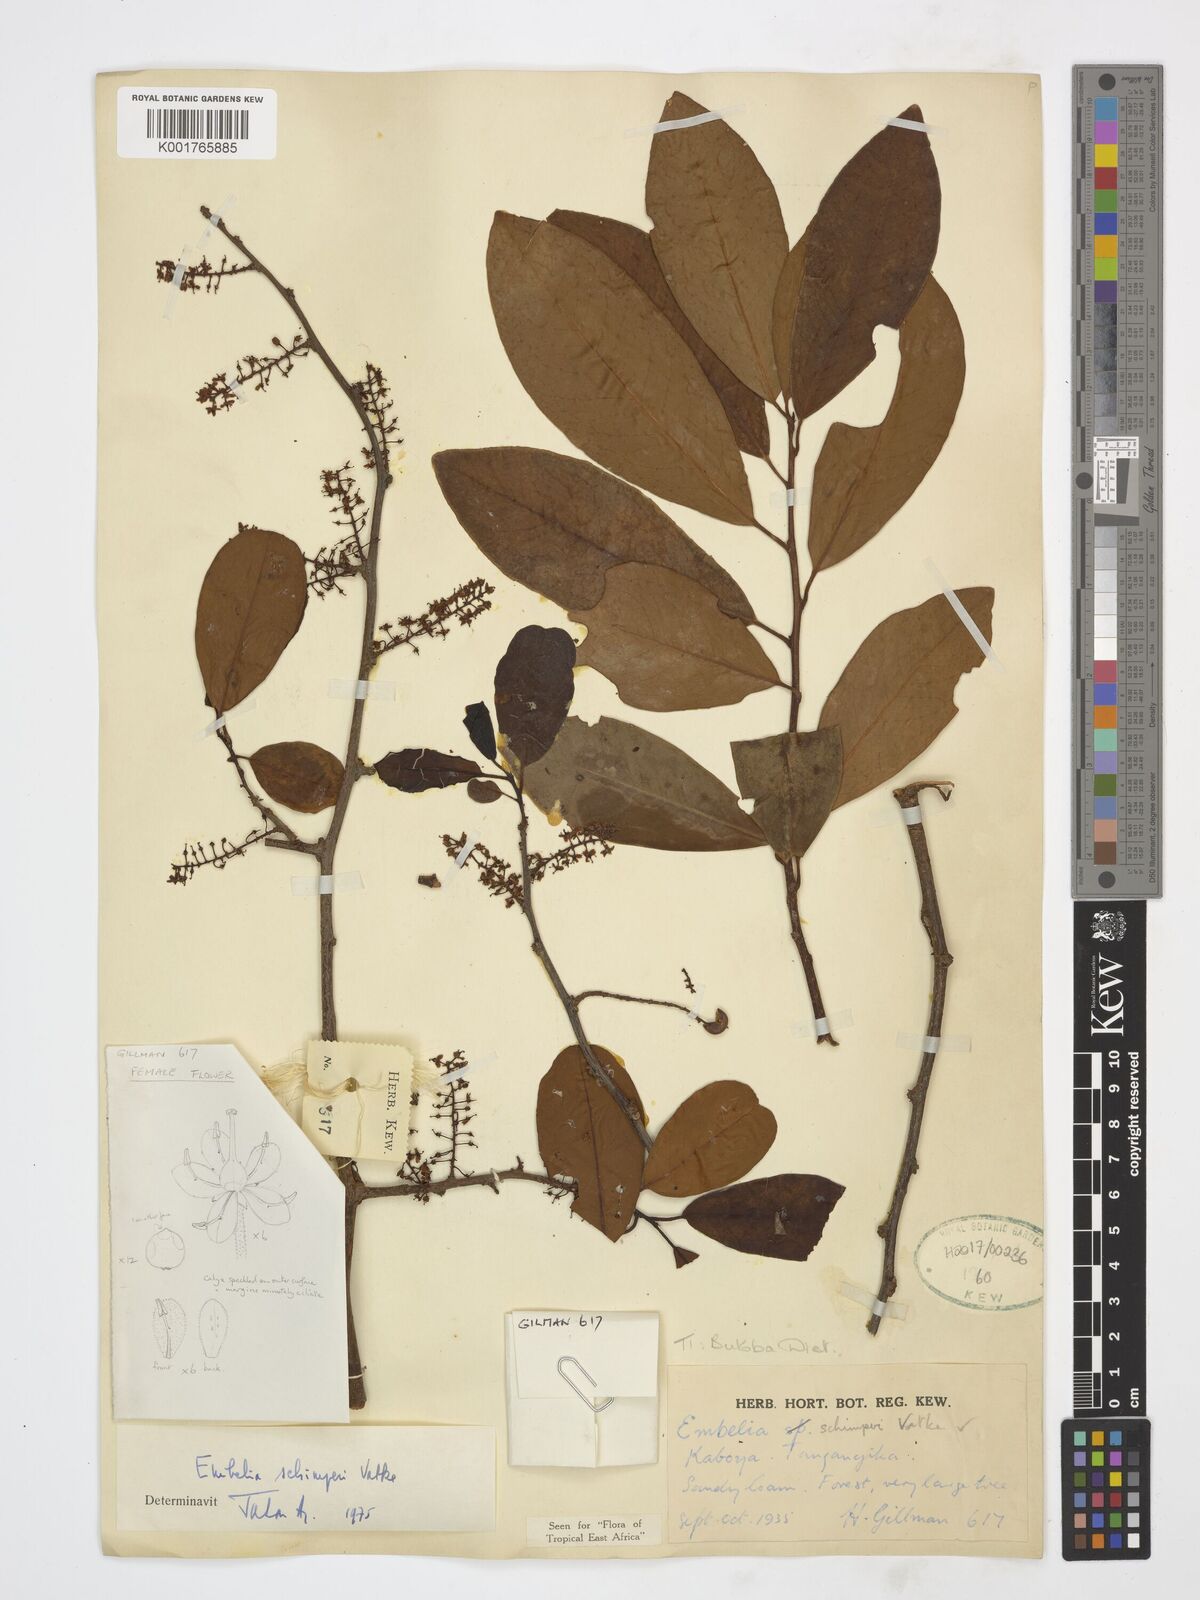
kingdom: Plantae
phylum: Tracheophyta
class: Magnoliopsida
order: Ericales
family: Primulaceae
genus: Embelia
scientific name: Embelia schimperi
